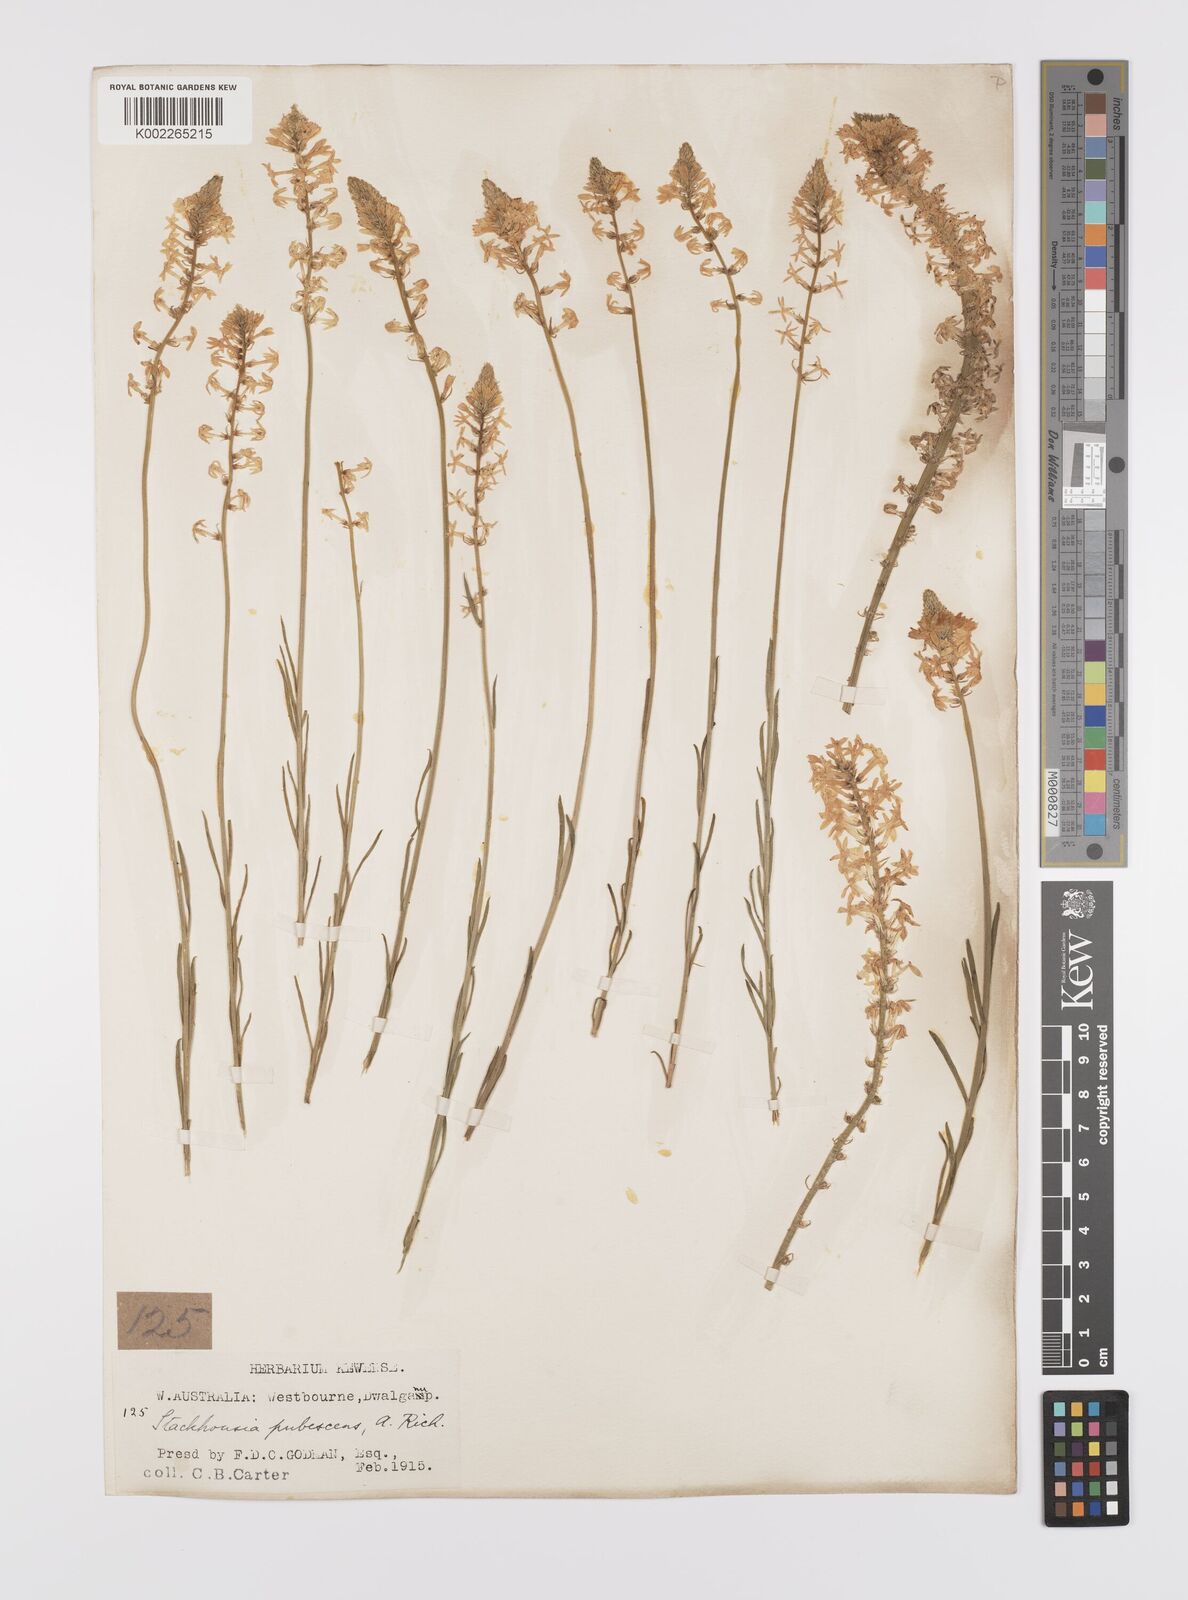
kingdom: Plantae
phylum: Tracheophyta
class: Magnoliopsida
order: Celastrales
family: Celastraceae
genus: Stackhousia
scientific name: Stackhousia monogyna
